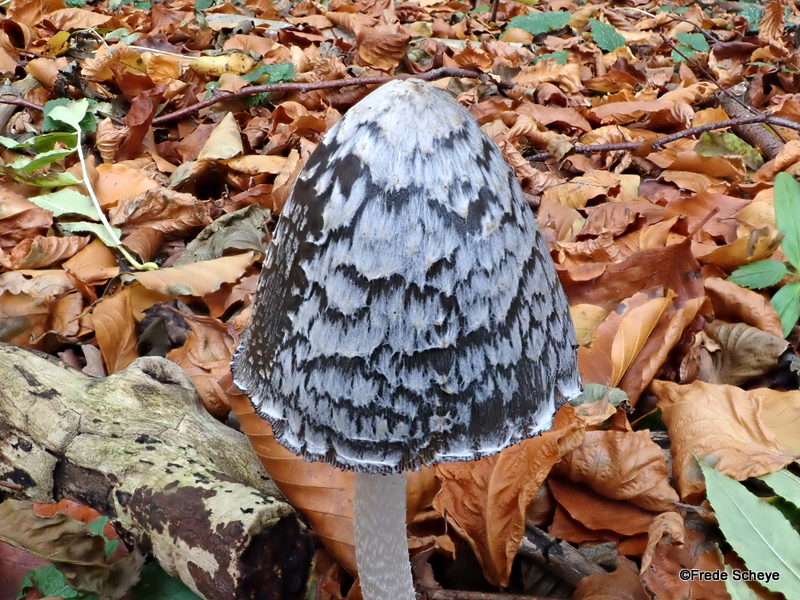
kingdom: Fungi
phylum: Basidiomycota
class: Agaricomycetes
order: Agaricales
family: Psathyrellaceae
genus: Coprinopsis
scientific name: Coprinopsis picacea
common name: skade-blækhat
